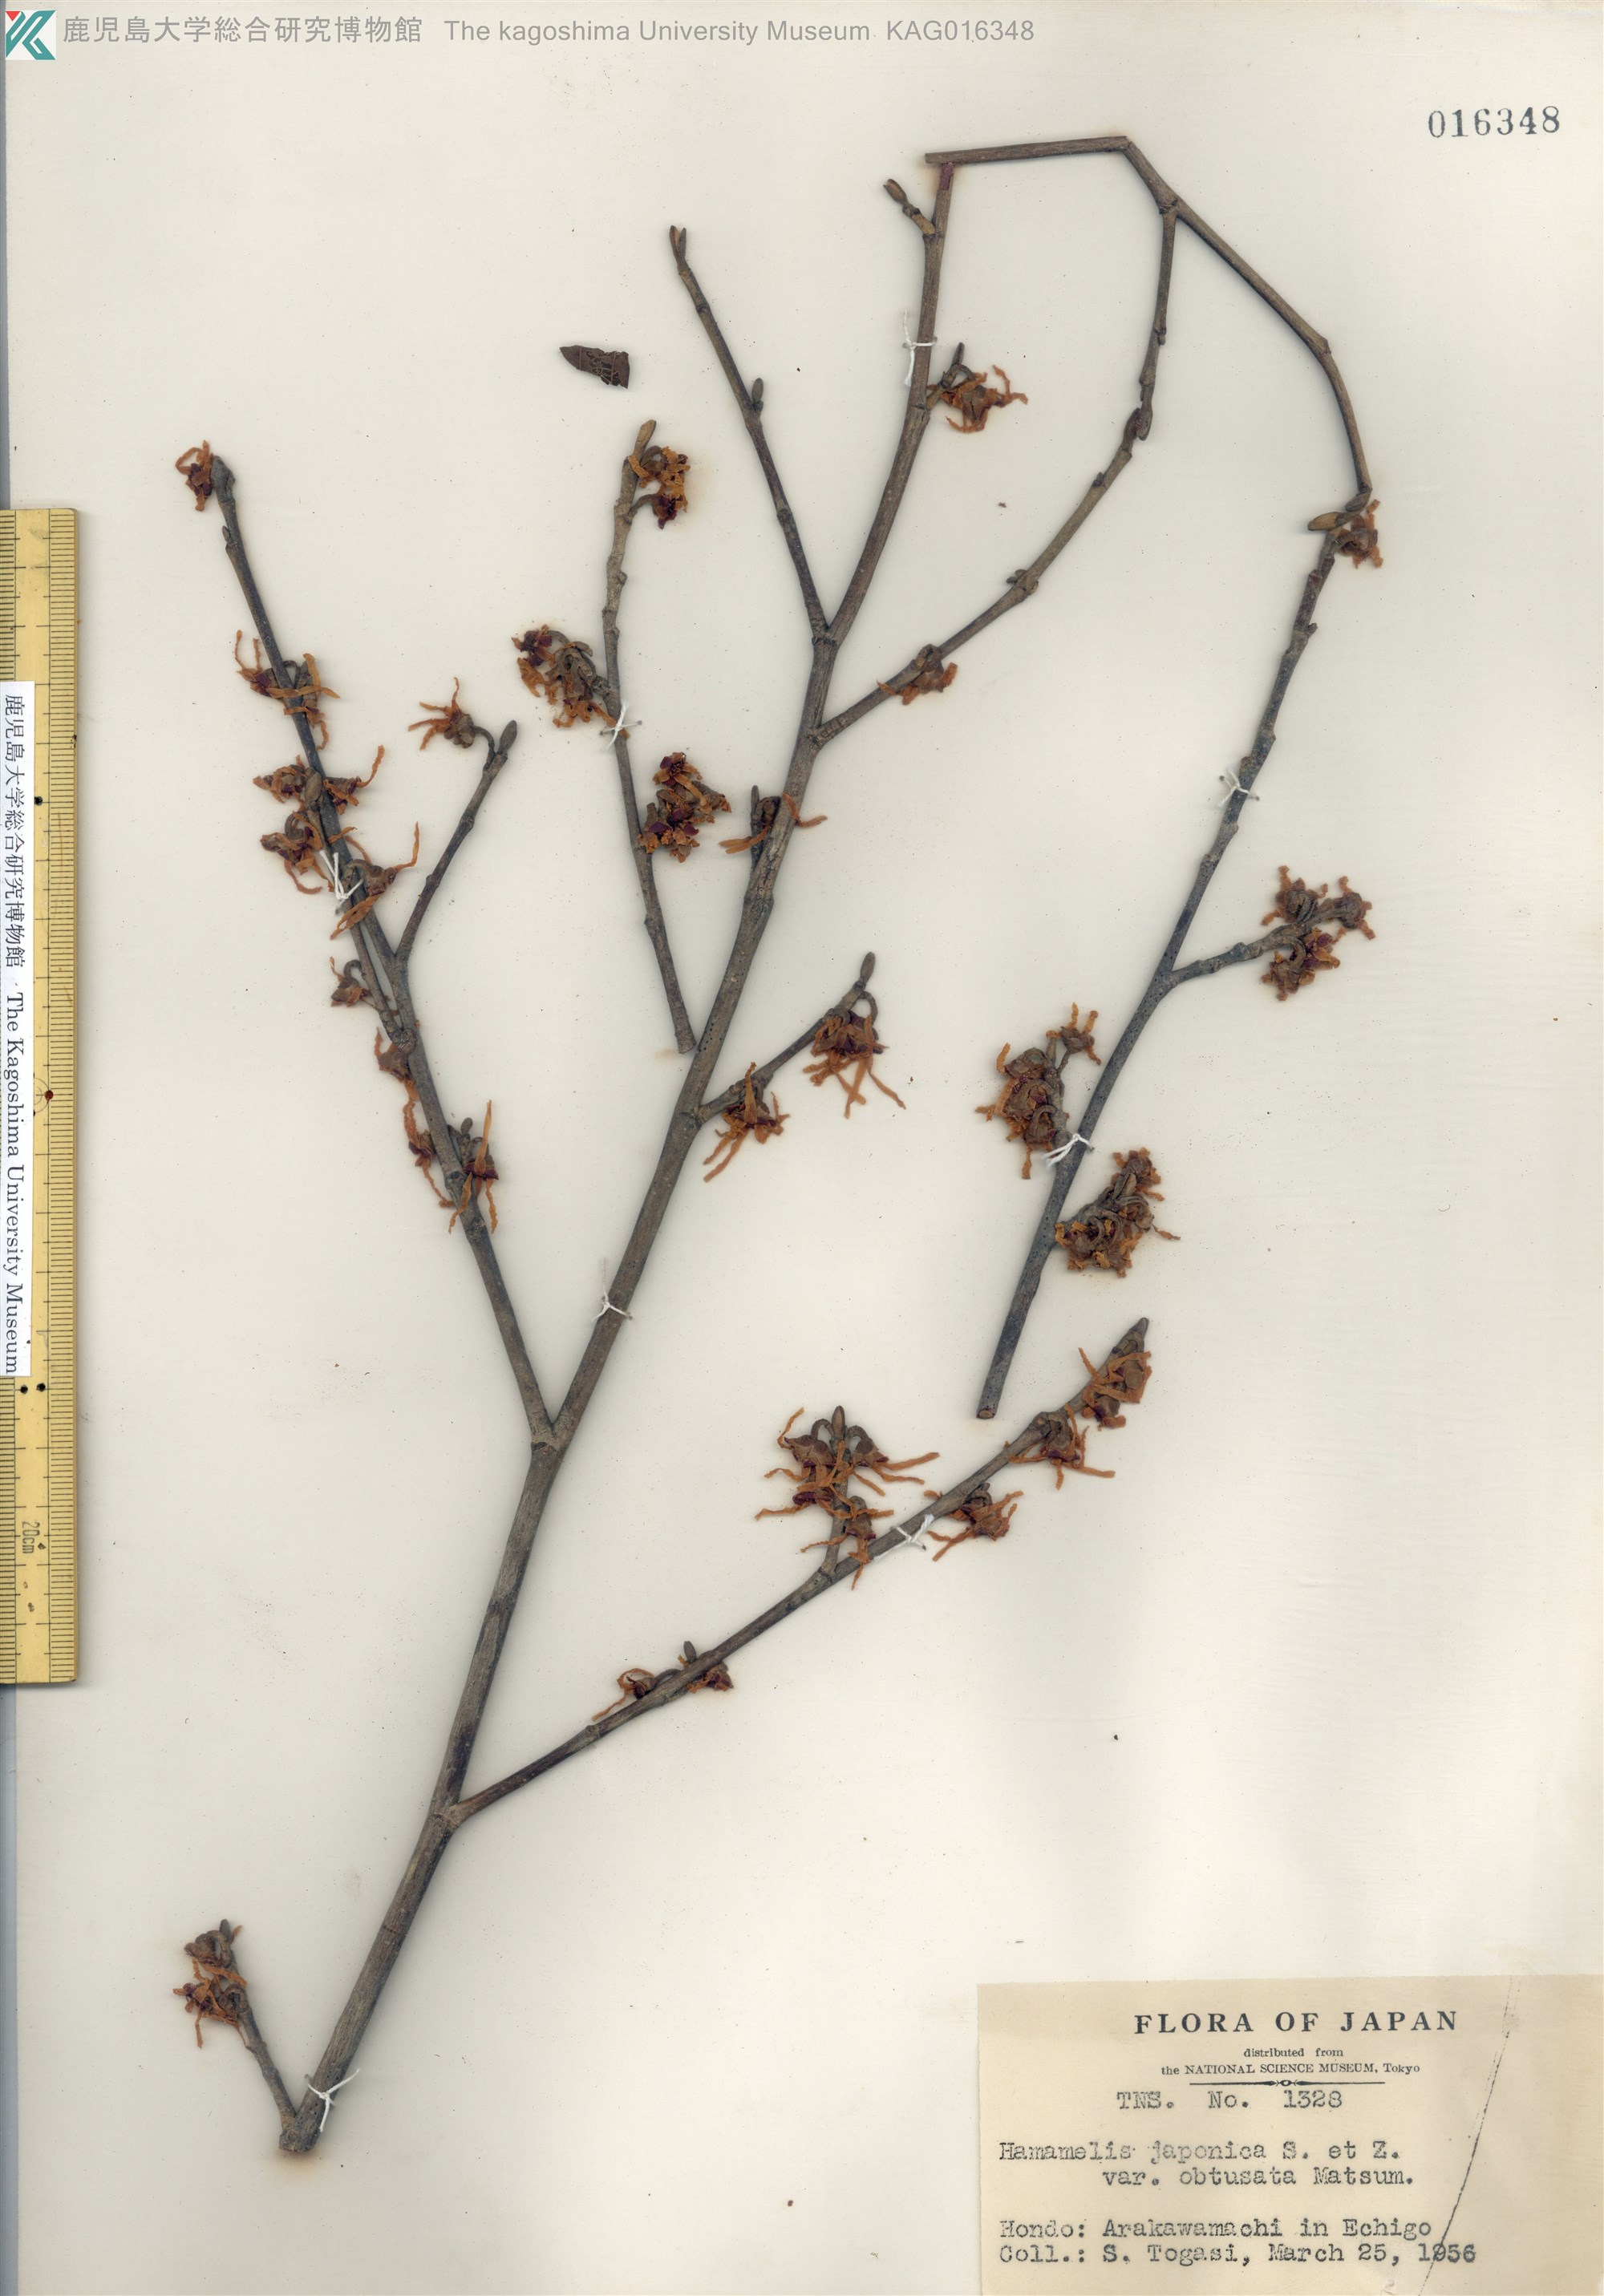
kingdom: Plantae
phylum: Tracheophyta
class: Magnoliopsida
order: Saxifragales
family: Hamamelidaceae
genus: Hamamelis
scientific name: Hamamelis japonica
